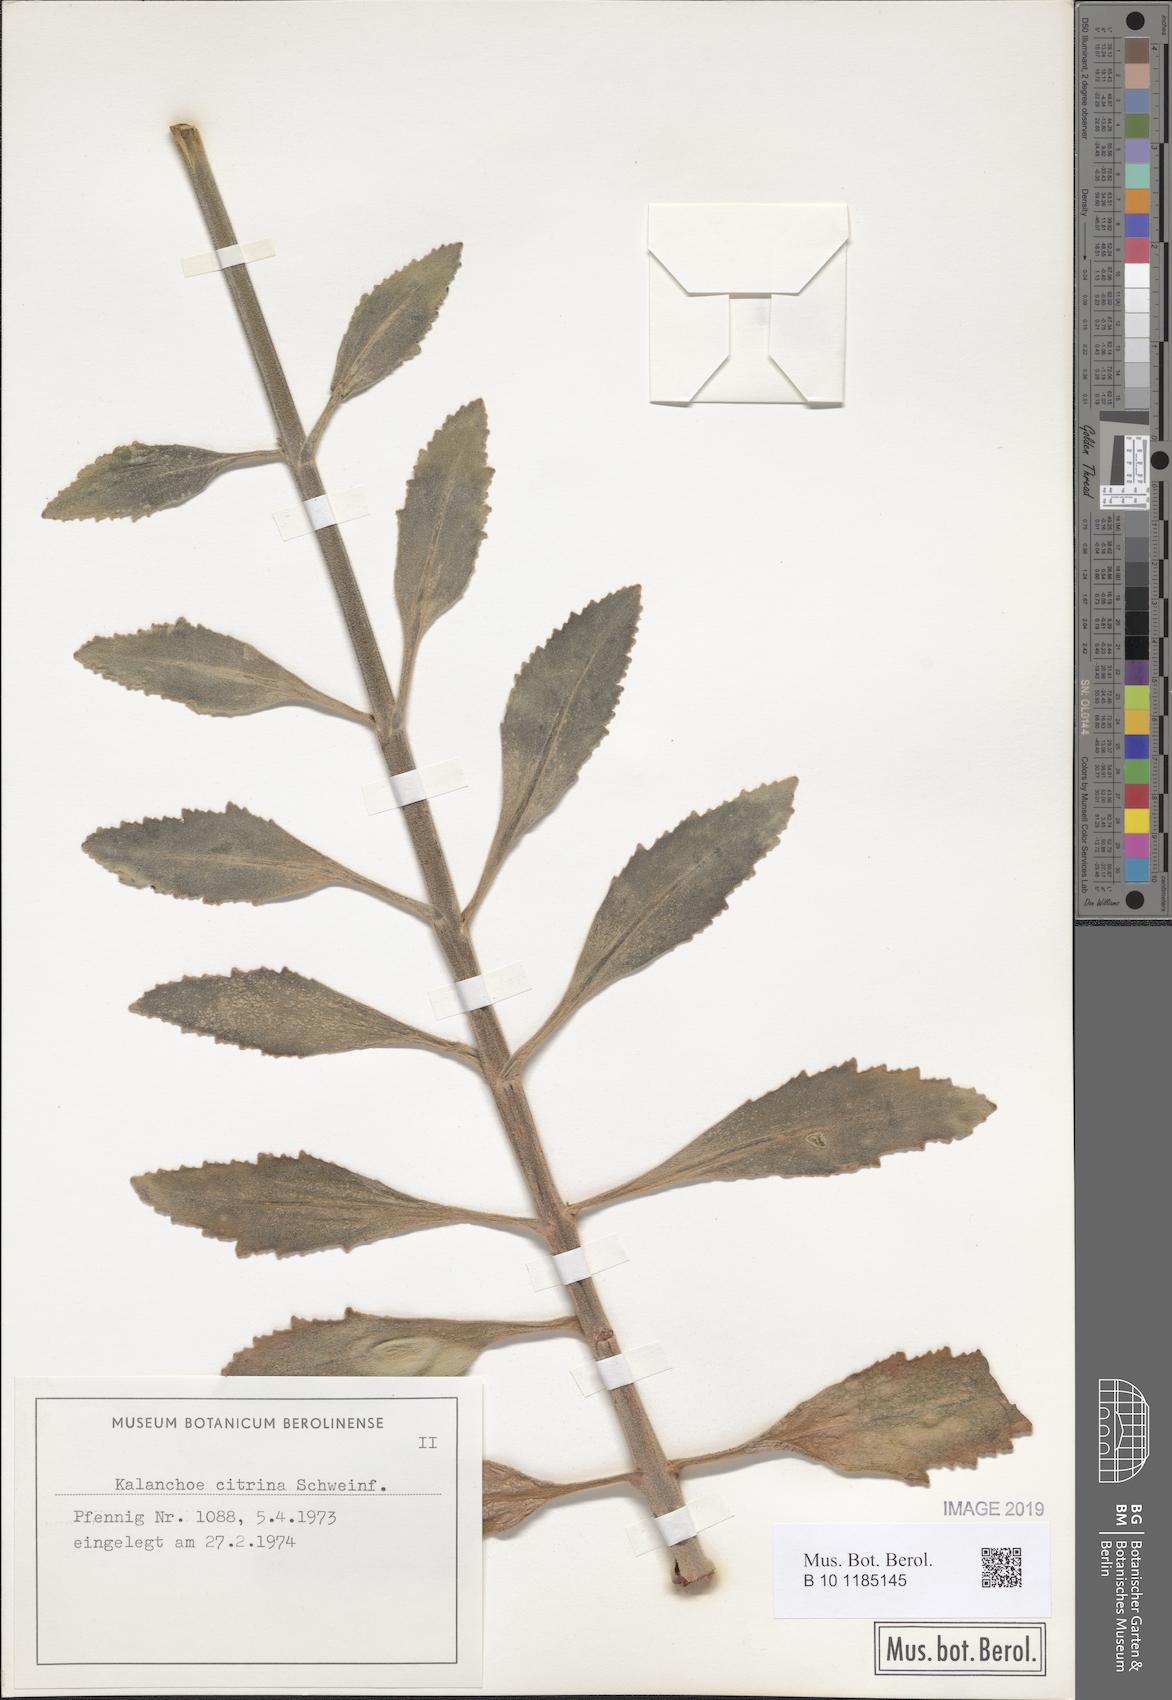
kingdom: Plantae
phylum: Tracheophyta
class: Magnoliopsida
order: Saxifragales
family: Crassulaceae
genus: Kalanchoe
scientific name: Kalanchoe citrina
